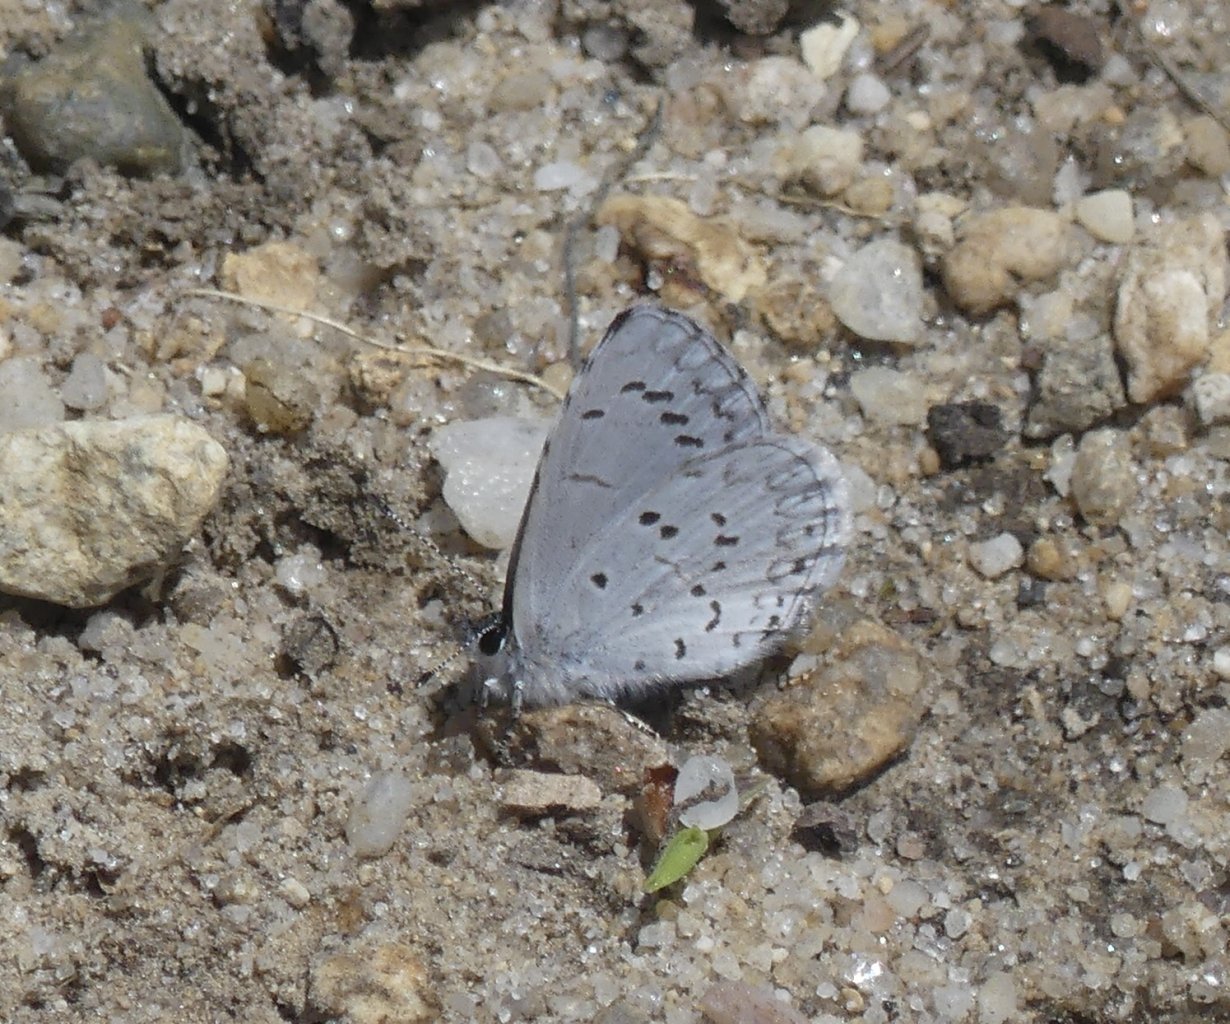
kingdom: Animalia
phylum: Arthropoda
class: Insecta
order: Lepidoptera
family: Lycaenidae
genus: Celastrina
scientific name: Celastrina serotina
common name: Cherry Gall Azure
